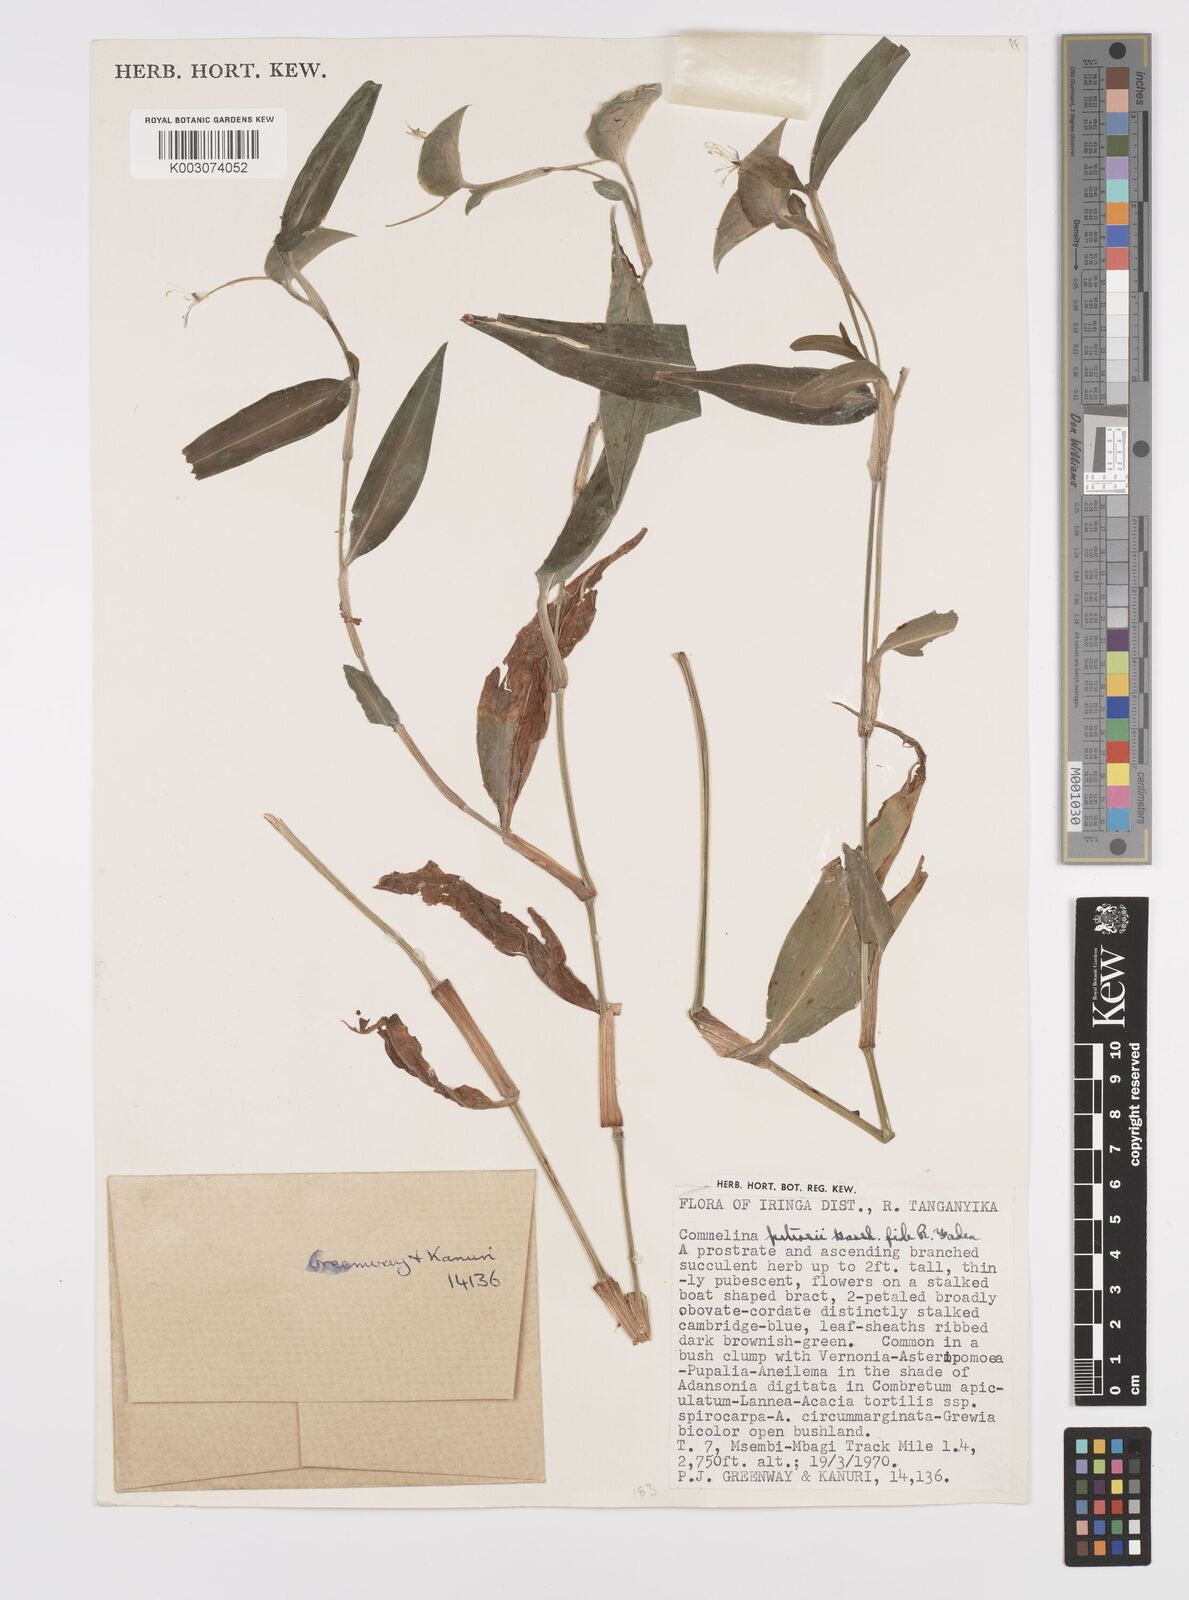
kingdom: Plantae
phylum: Tracheophyta
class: Liliopsida
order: Commelinales
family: Commelinaceae
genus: Commelina
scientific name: Commelina petersii
